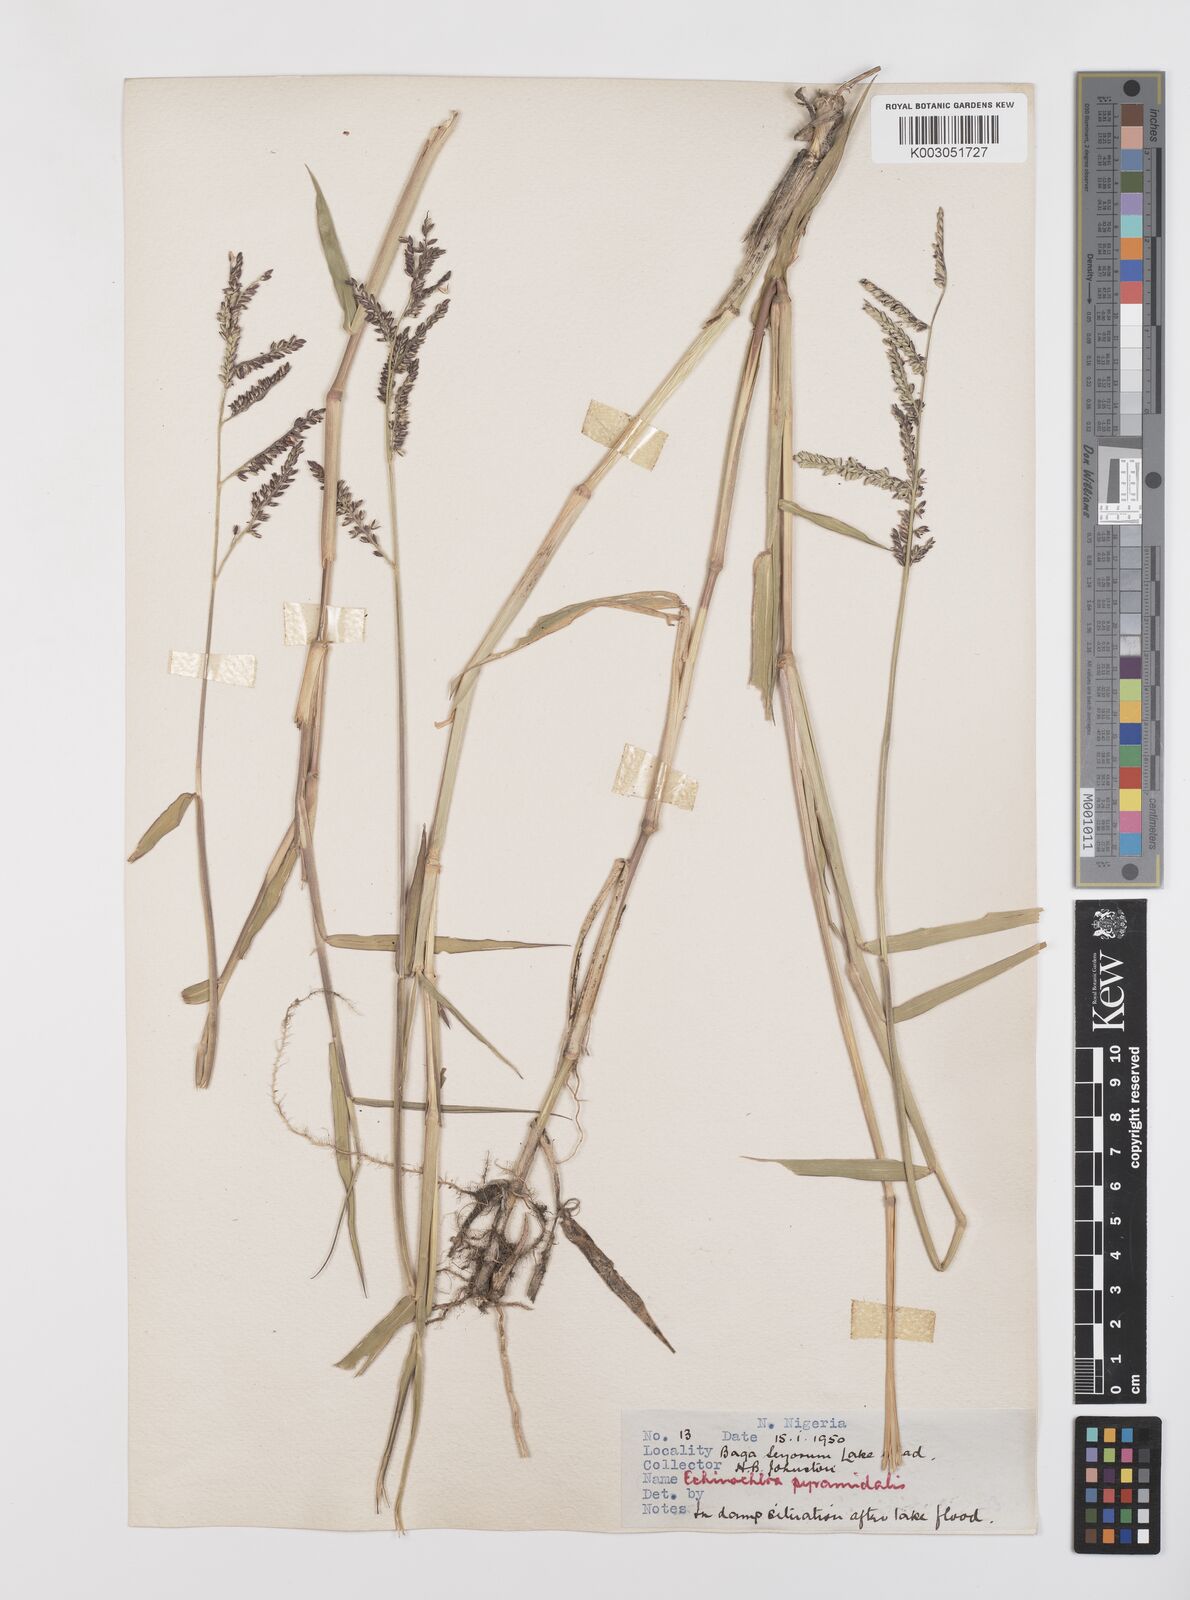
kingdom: Plantae
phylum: Tracheophyta
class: Liliopsida
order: Poales
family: Poaceae
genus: Urochloa
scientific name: Urochloa mutica
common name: Para grass
